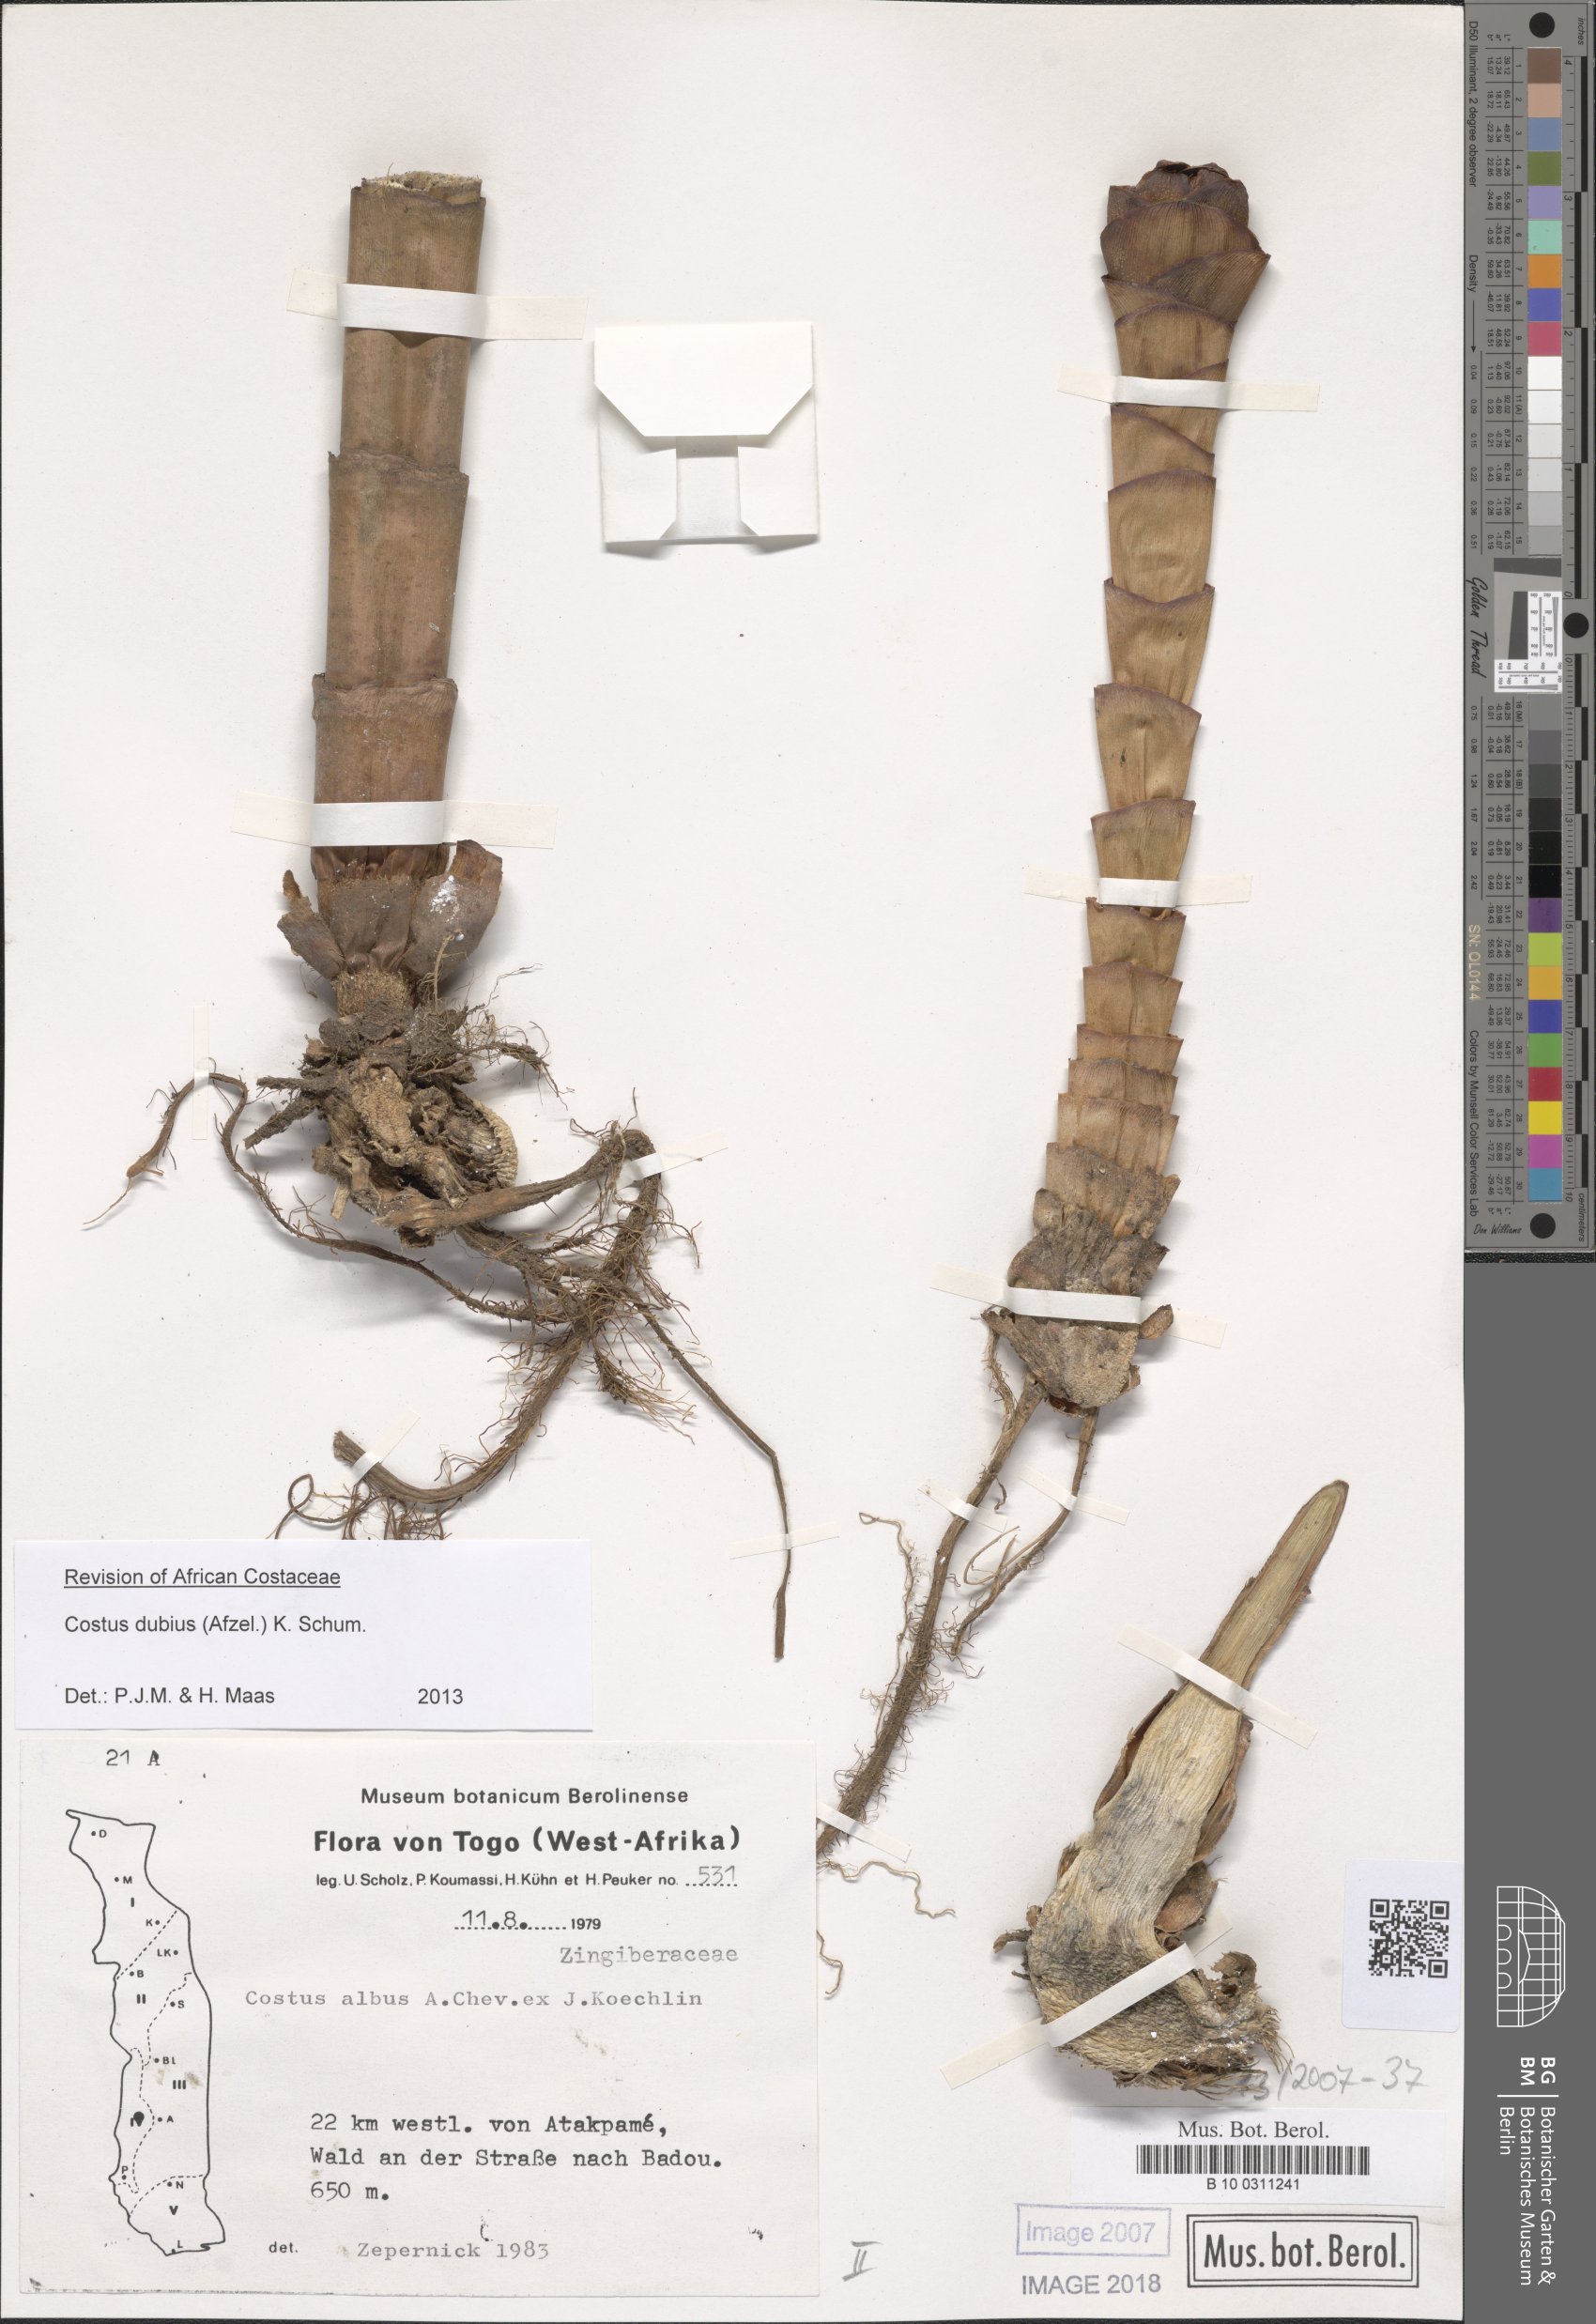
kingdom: Plantae
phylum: Tracheophyta
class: Liliopsida
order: Zingiberales
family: Costaceae
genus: Costus
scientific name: Costus dubius
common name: Costus
